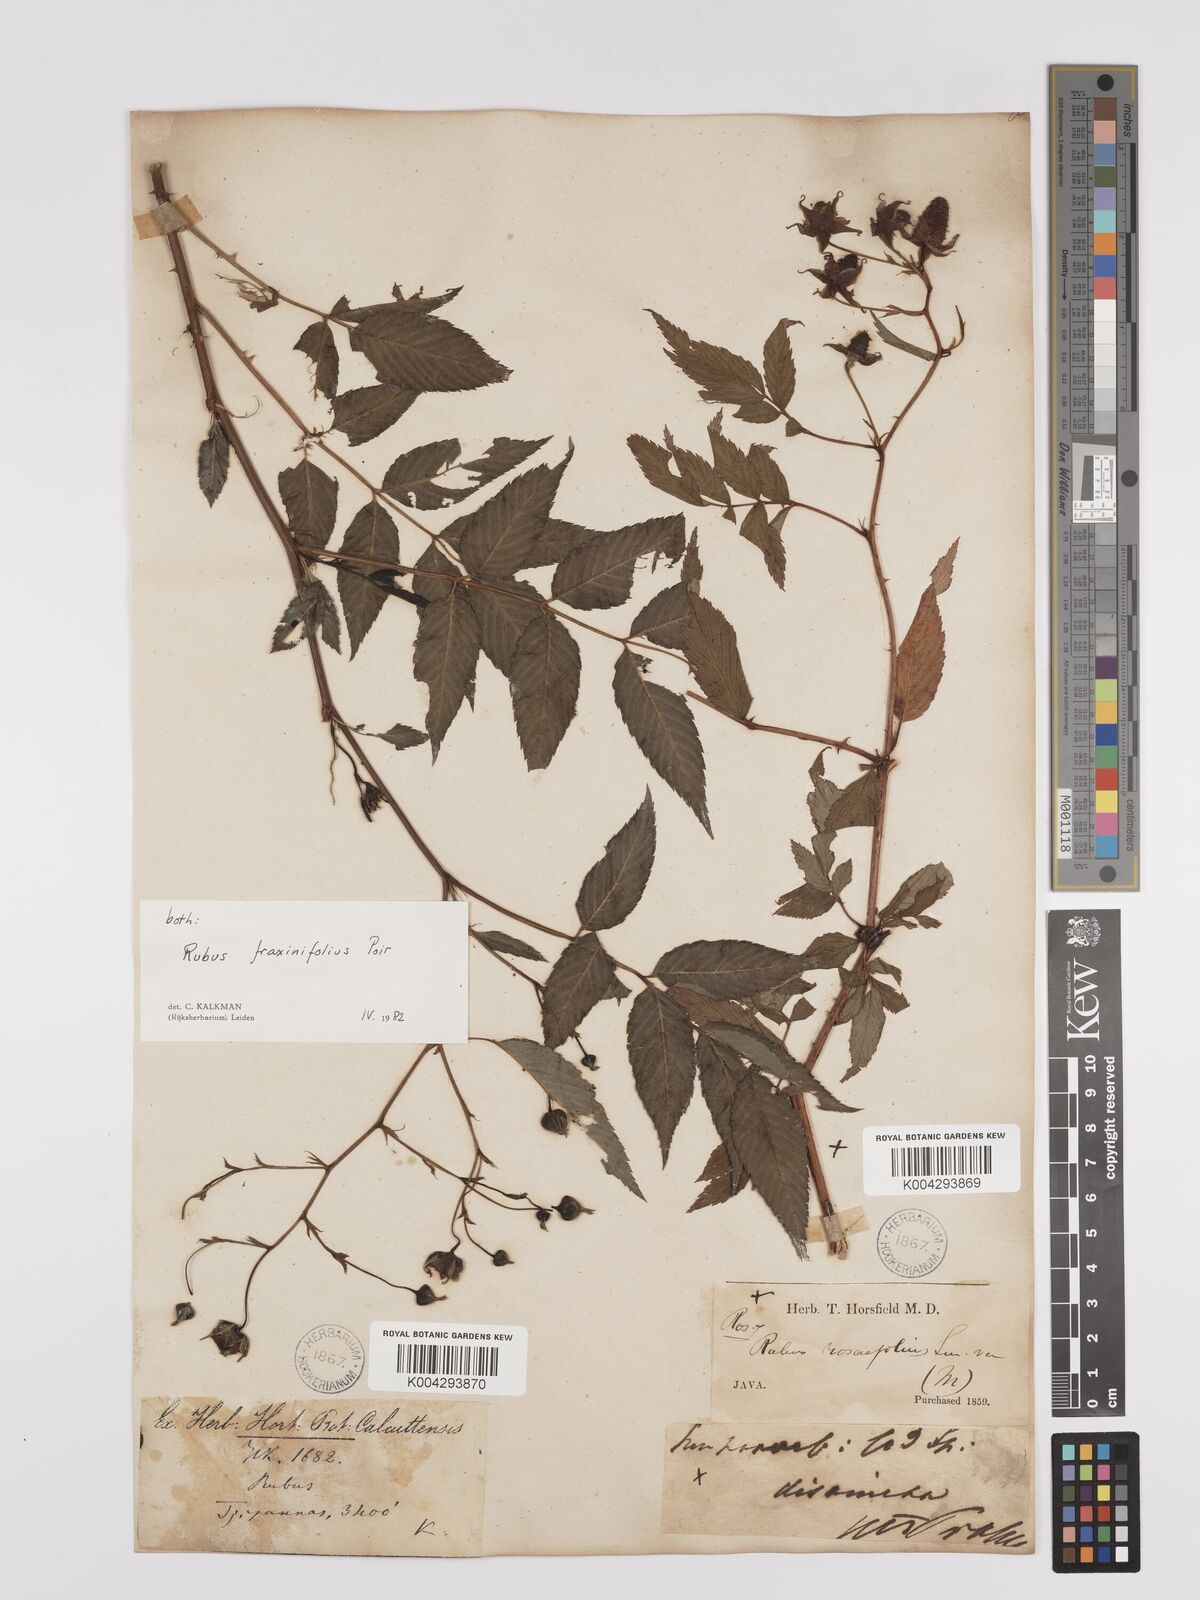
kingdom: Plantae
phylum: Tracheophyta
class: Magnoliopsida
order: Rosales
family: Rosaceae
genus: Rubus
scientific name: Rubus fraxinifolius
